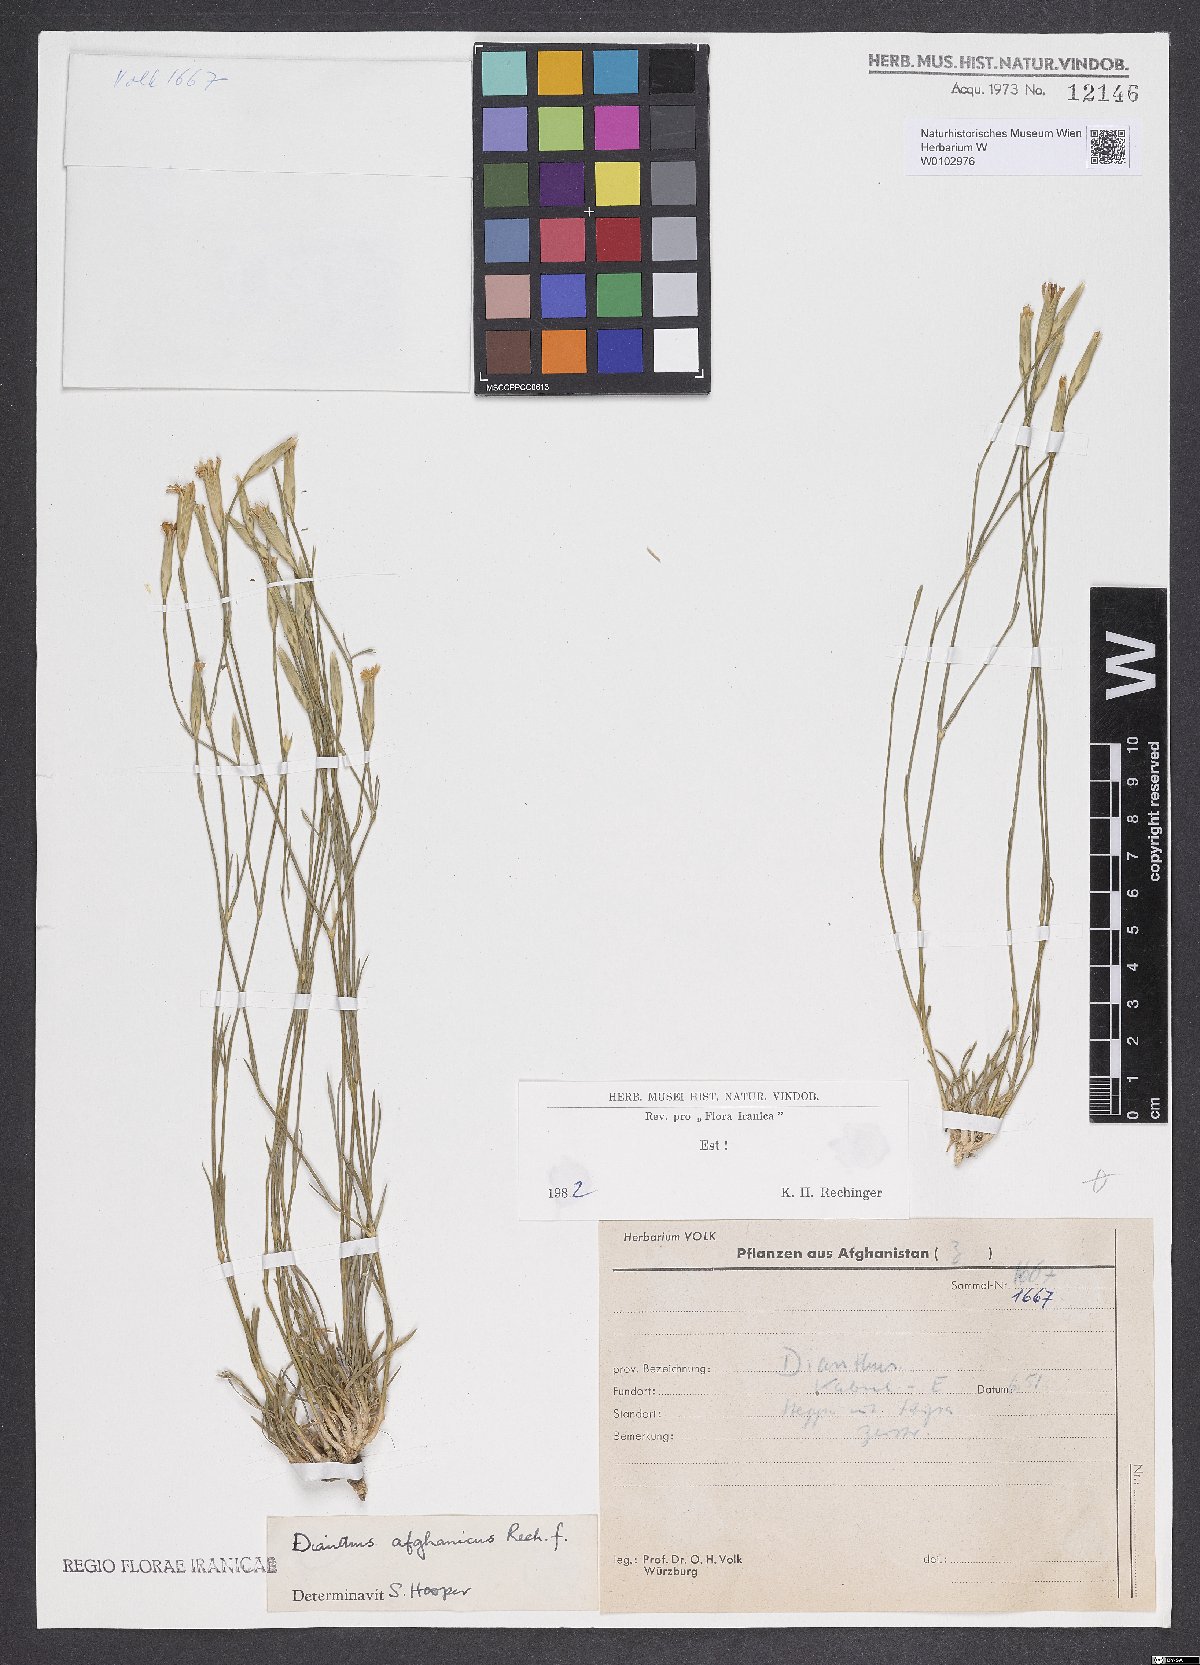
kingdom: Plantae
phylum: Tracheophyta
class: Magnoliopsida
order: Caryophyllales
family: Caryophyllaceae
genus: Dianthus
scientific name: Dianthus afghanicus
